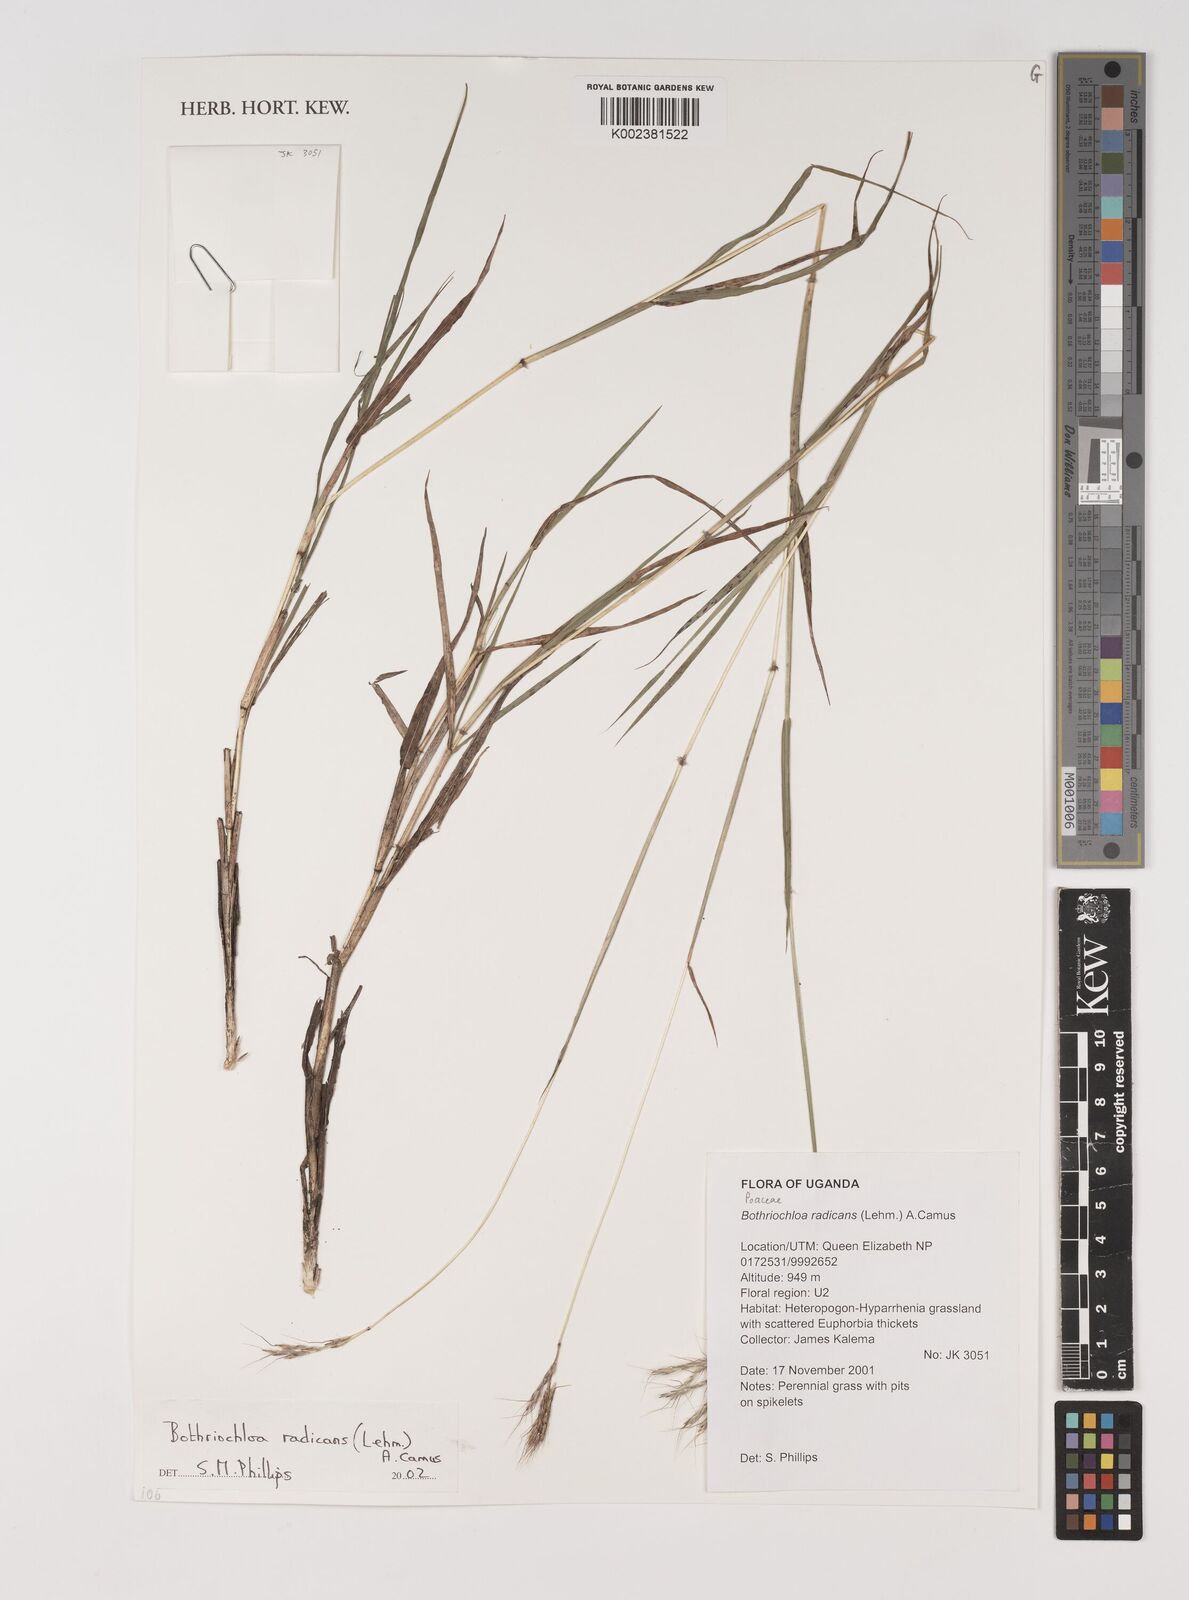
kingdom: Plantae
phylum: Tracheophyta
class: Liliopsida
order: Poales
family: Poaceae
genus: Bothriochloa
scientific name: Bothriochloa radicans
